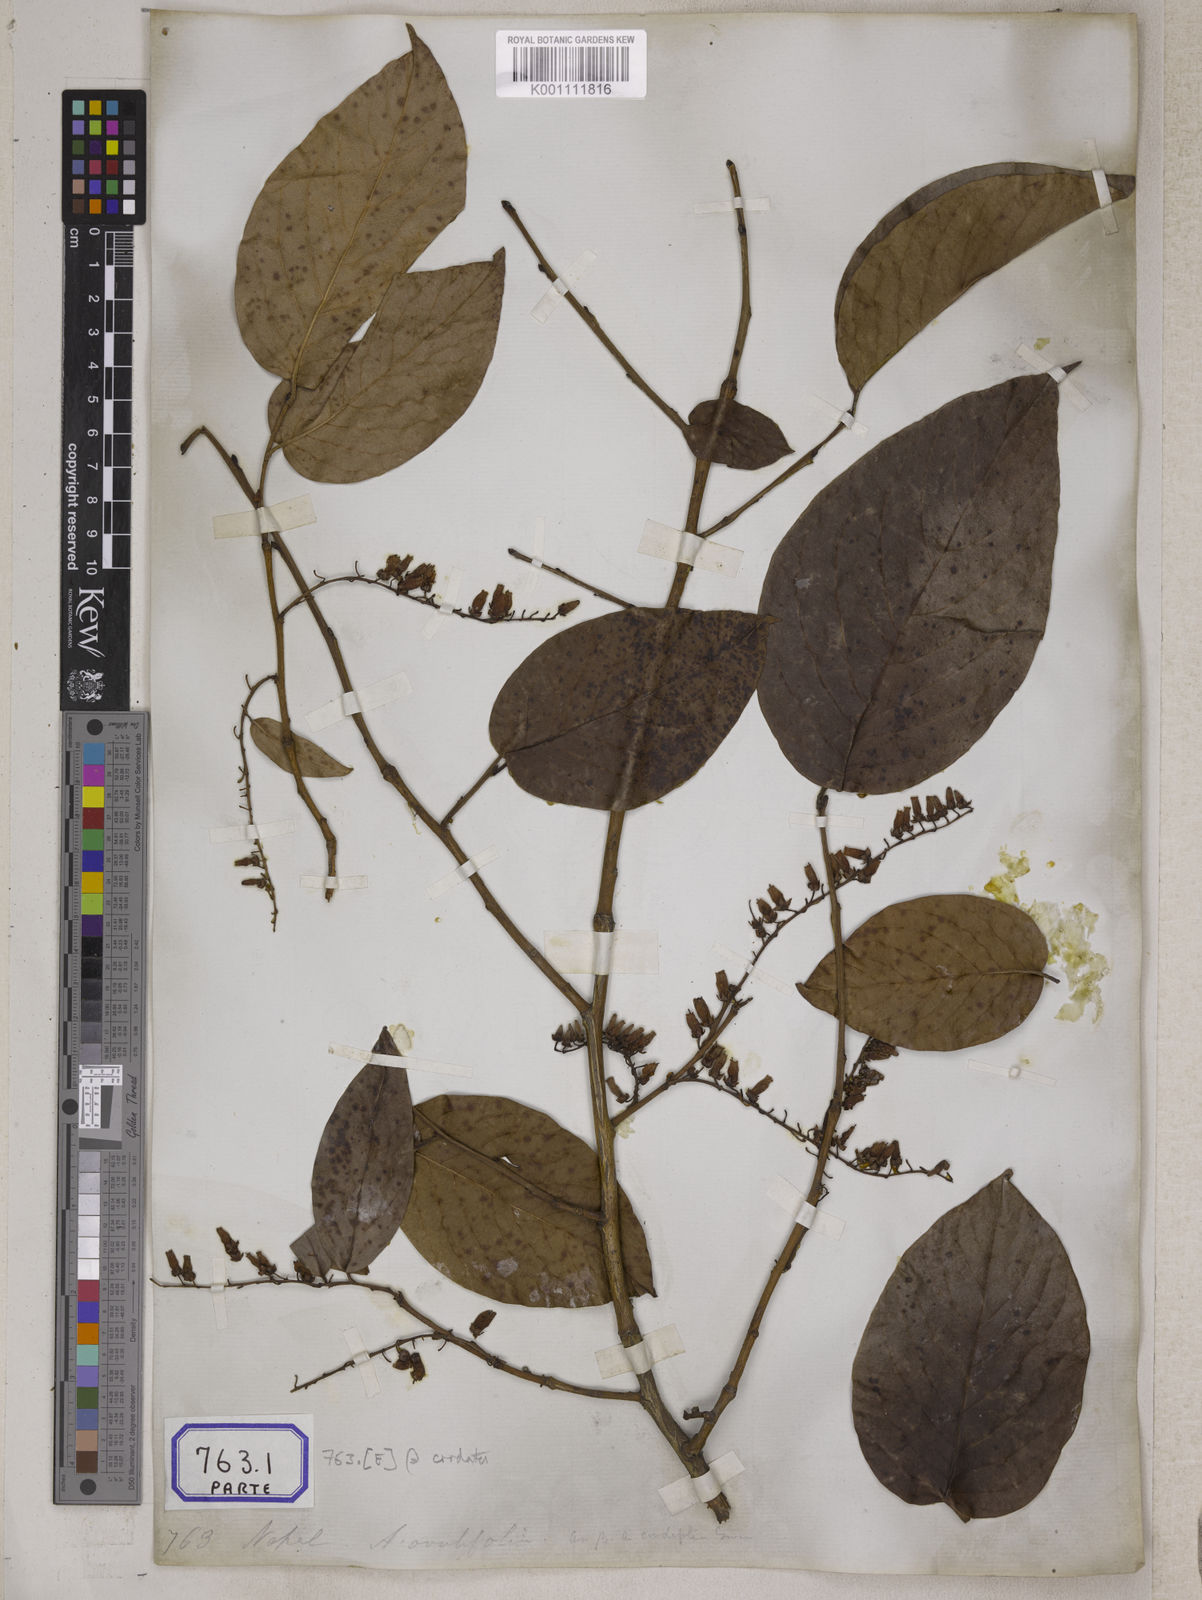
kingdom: Plantae
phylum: Tracheophyta
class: Magnoliopsida
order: Ericales
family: Ericaceae
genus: Lyonia
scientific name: Lyonia ovalifolia
